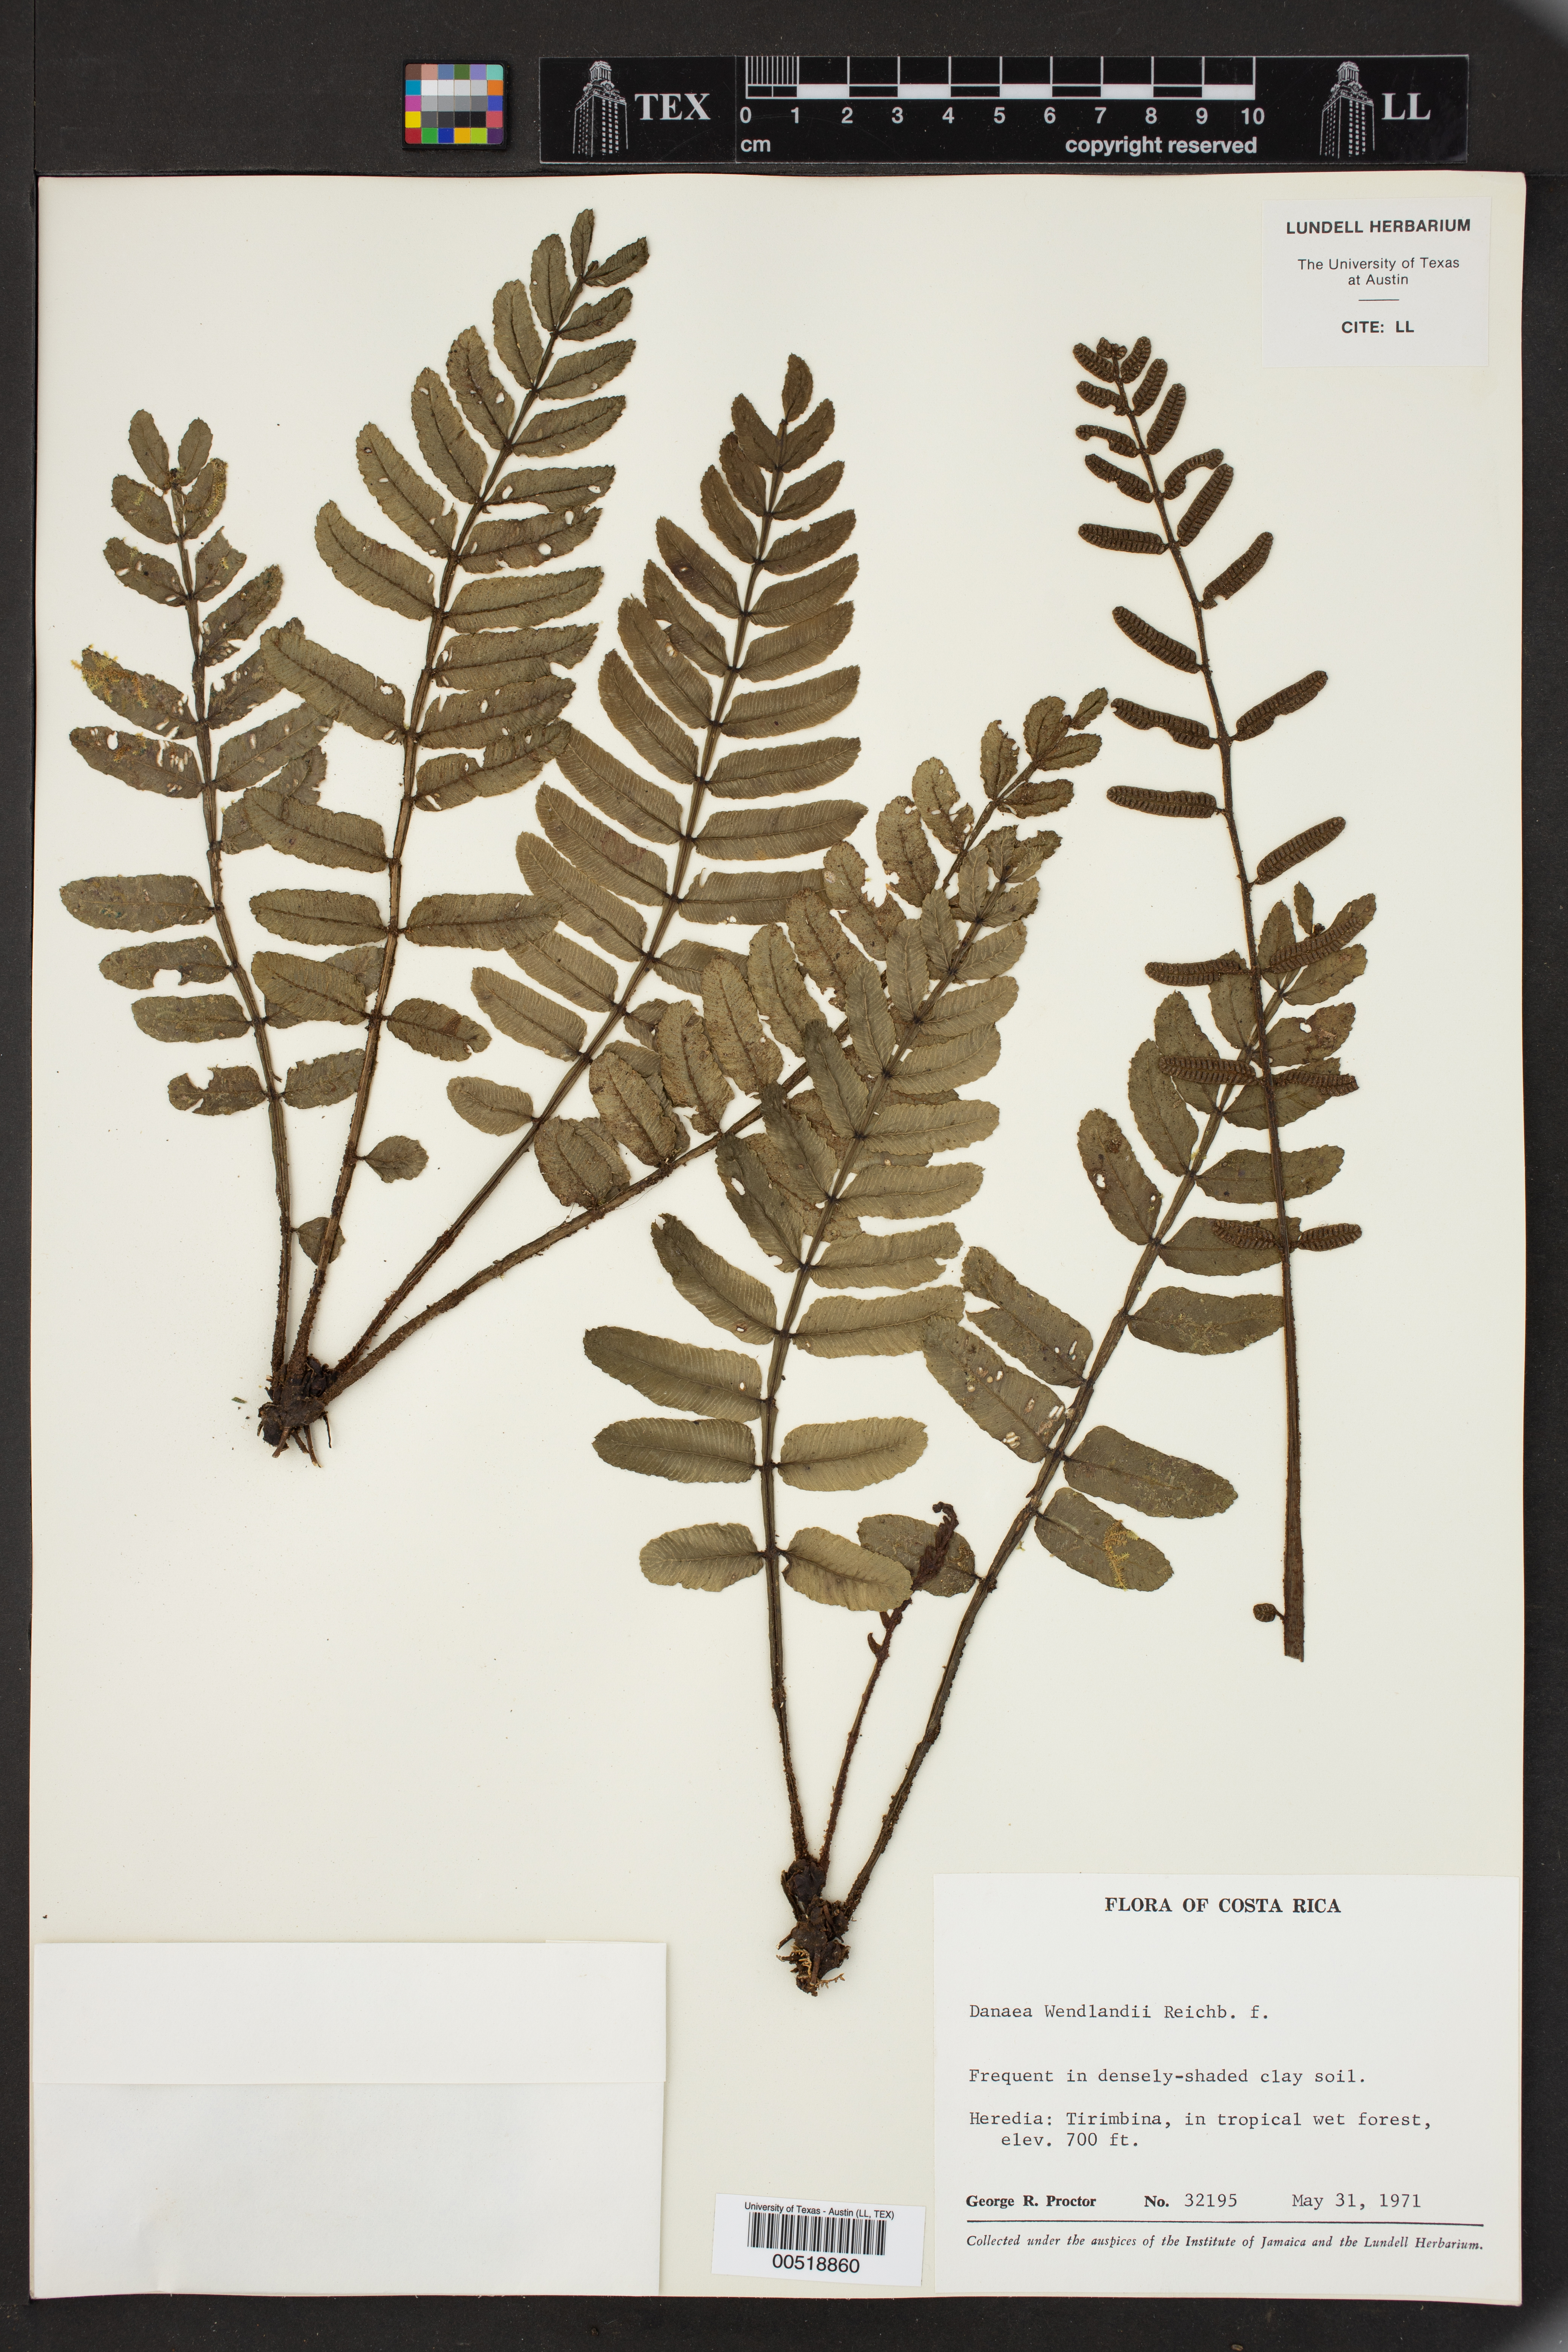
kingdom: Plantae
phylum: Tracheophyta
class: Polypodiopsida
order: Marattiales
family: Marattiaceae
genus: Danaea
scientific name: Danaea wendlandii
